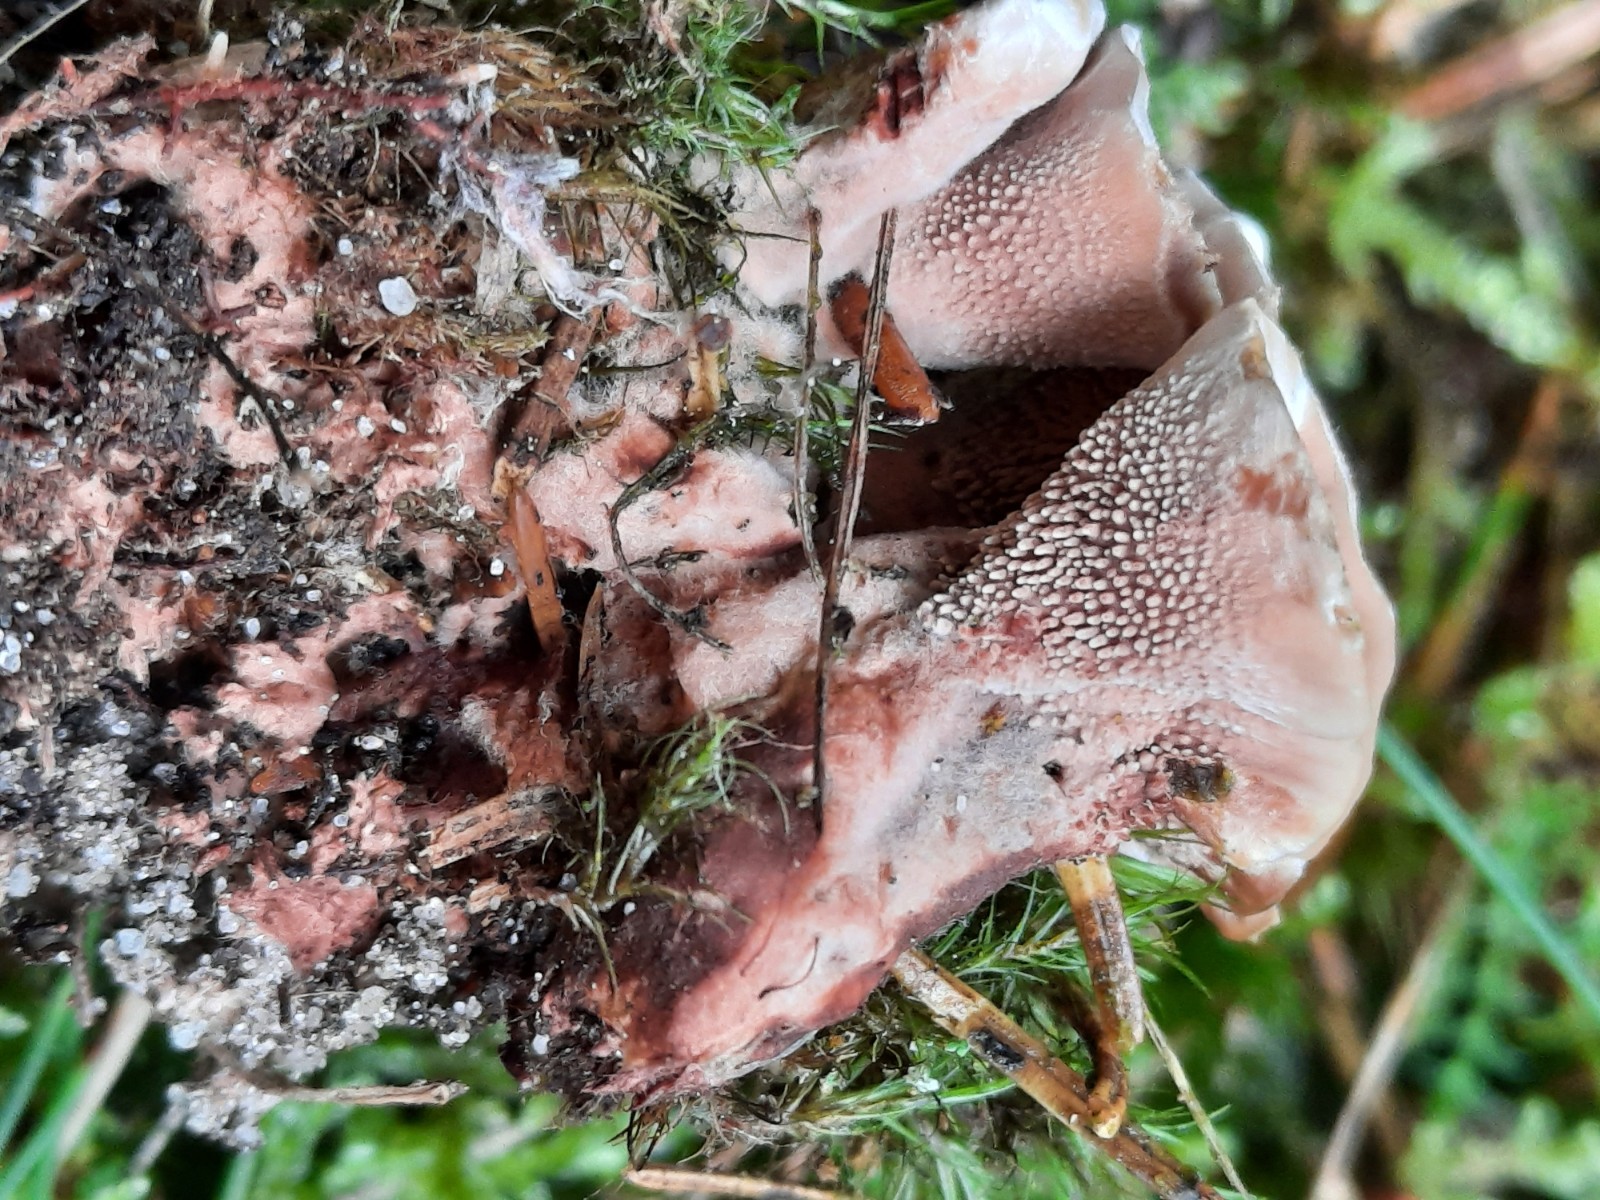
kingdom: Fungi
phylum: Basidiomycota
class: Agaricomycetes
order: Thelephorales
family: Bankeraceae
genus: Hydnellum
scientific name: Hydnellum cumulatum
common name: Rosette tooth
